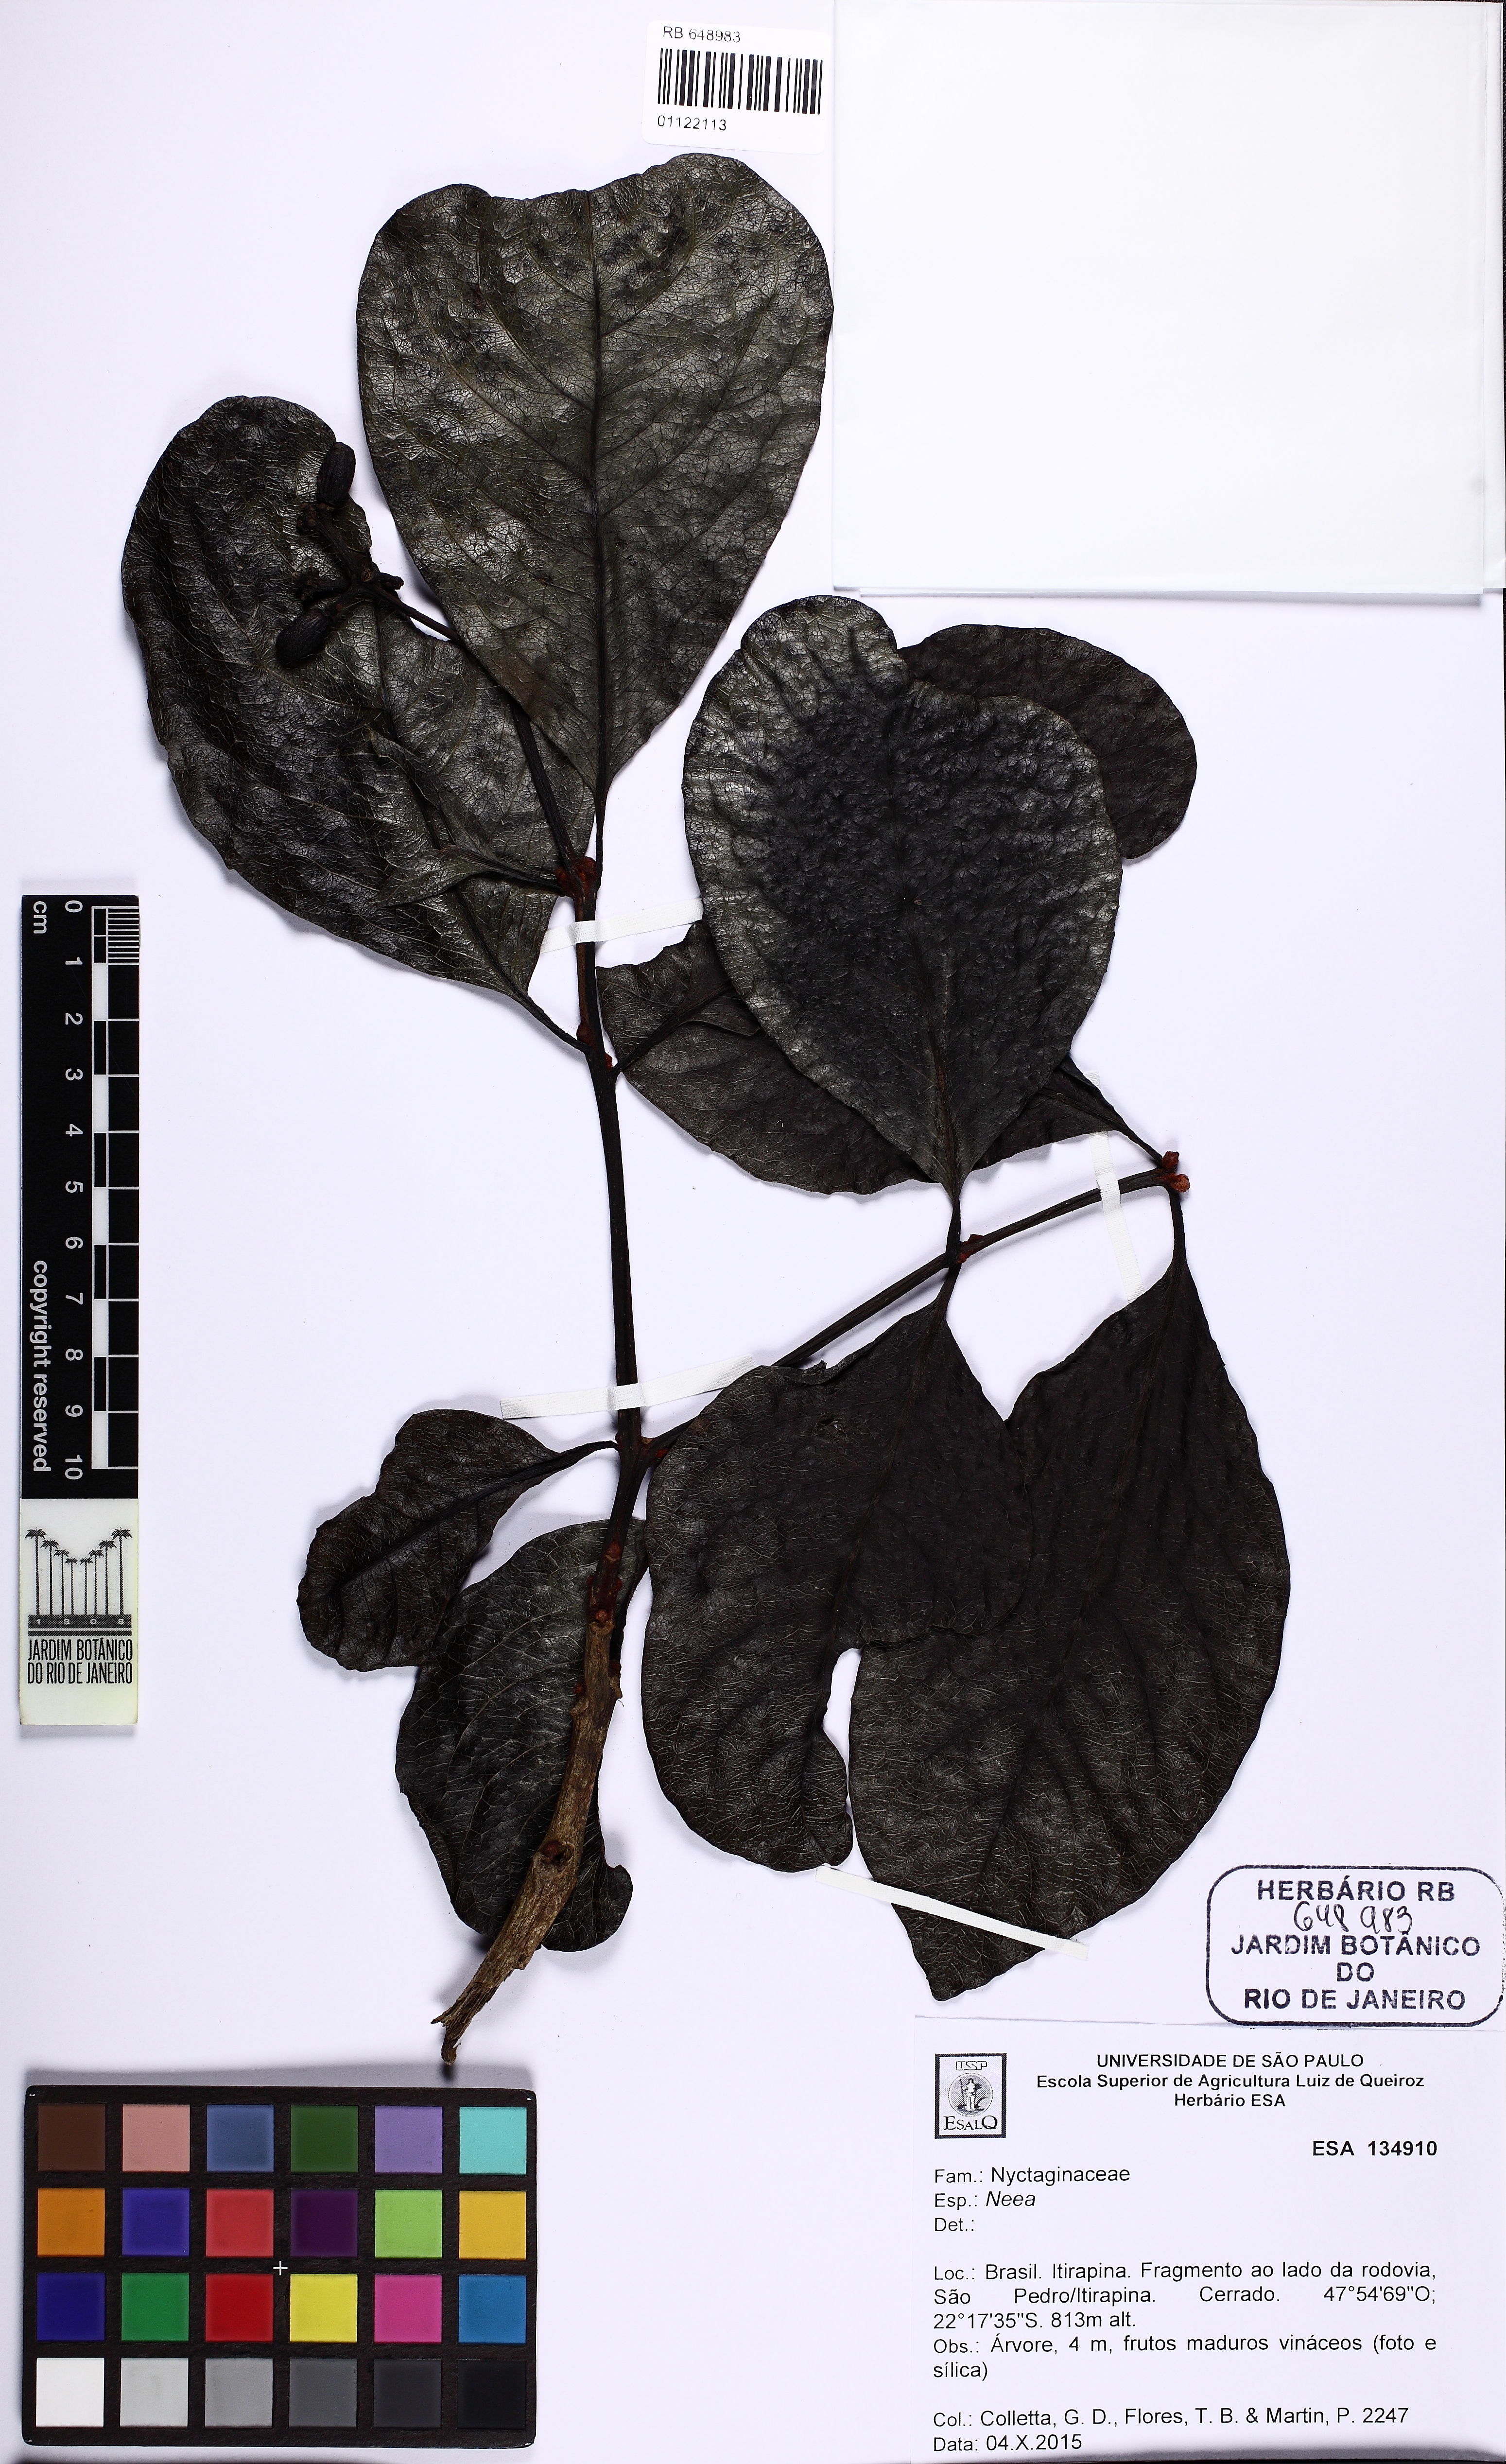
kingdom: Plantae
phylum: Tracheophyta
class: Magnoliopsida
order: Caryophyllales
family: Nyctaginaceae
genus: Guapira
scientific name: Guapira noxia
